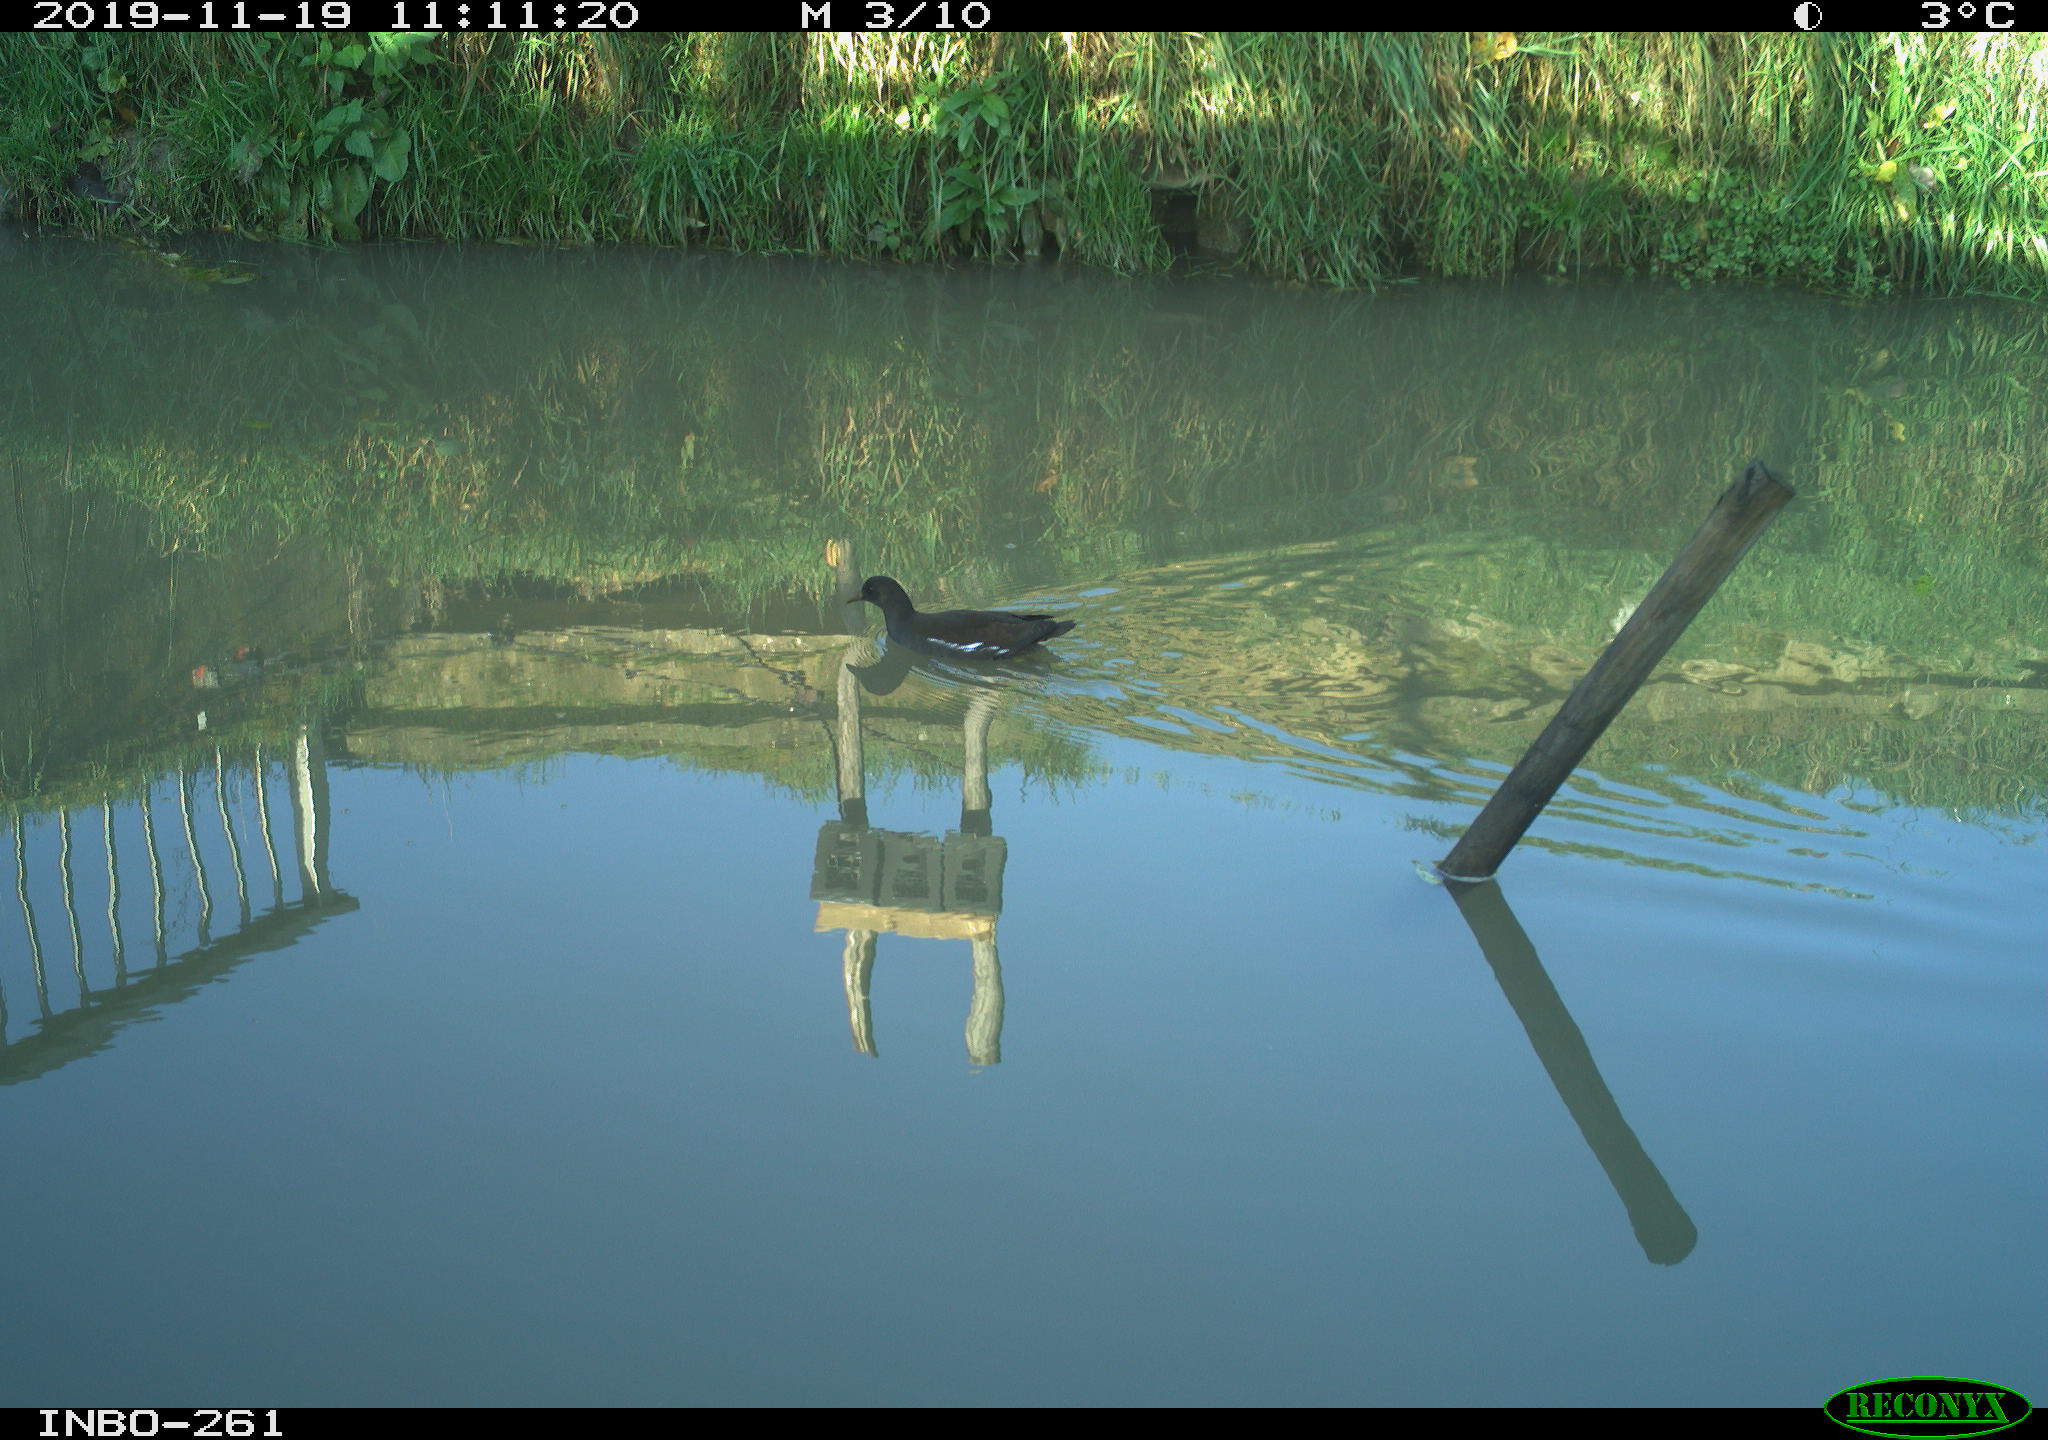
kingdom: Animalia
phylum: Chordata
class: Aves
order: Gruiformes
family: Rallidae
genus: Gallinula
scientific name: Gallinula chloropus
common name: Common moorhen
